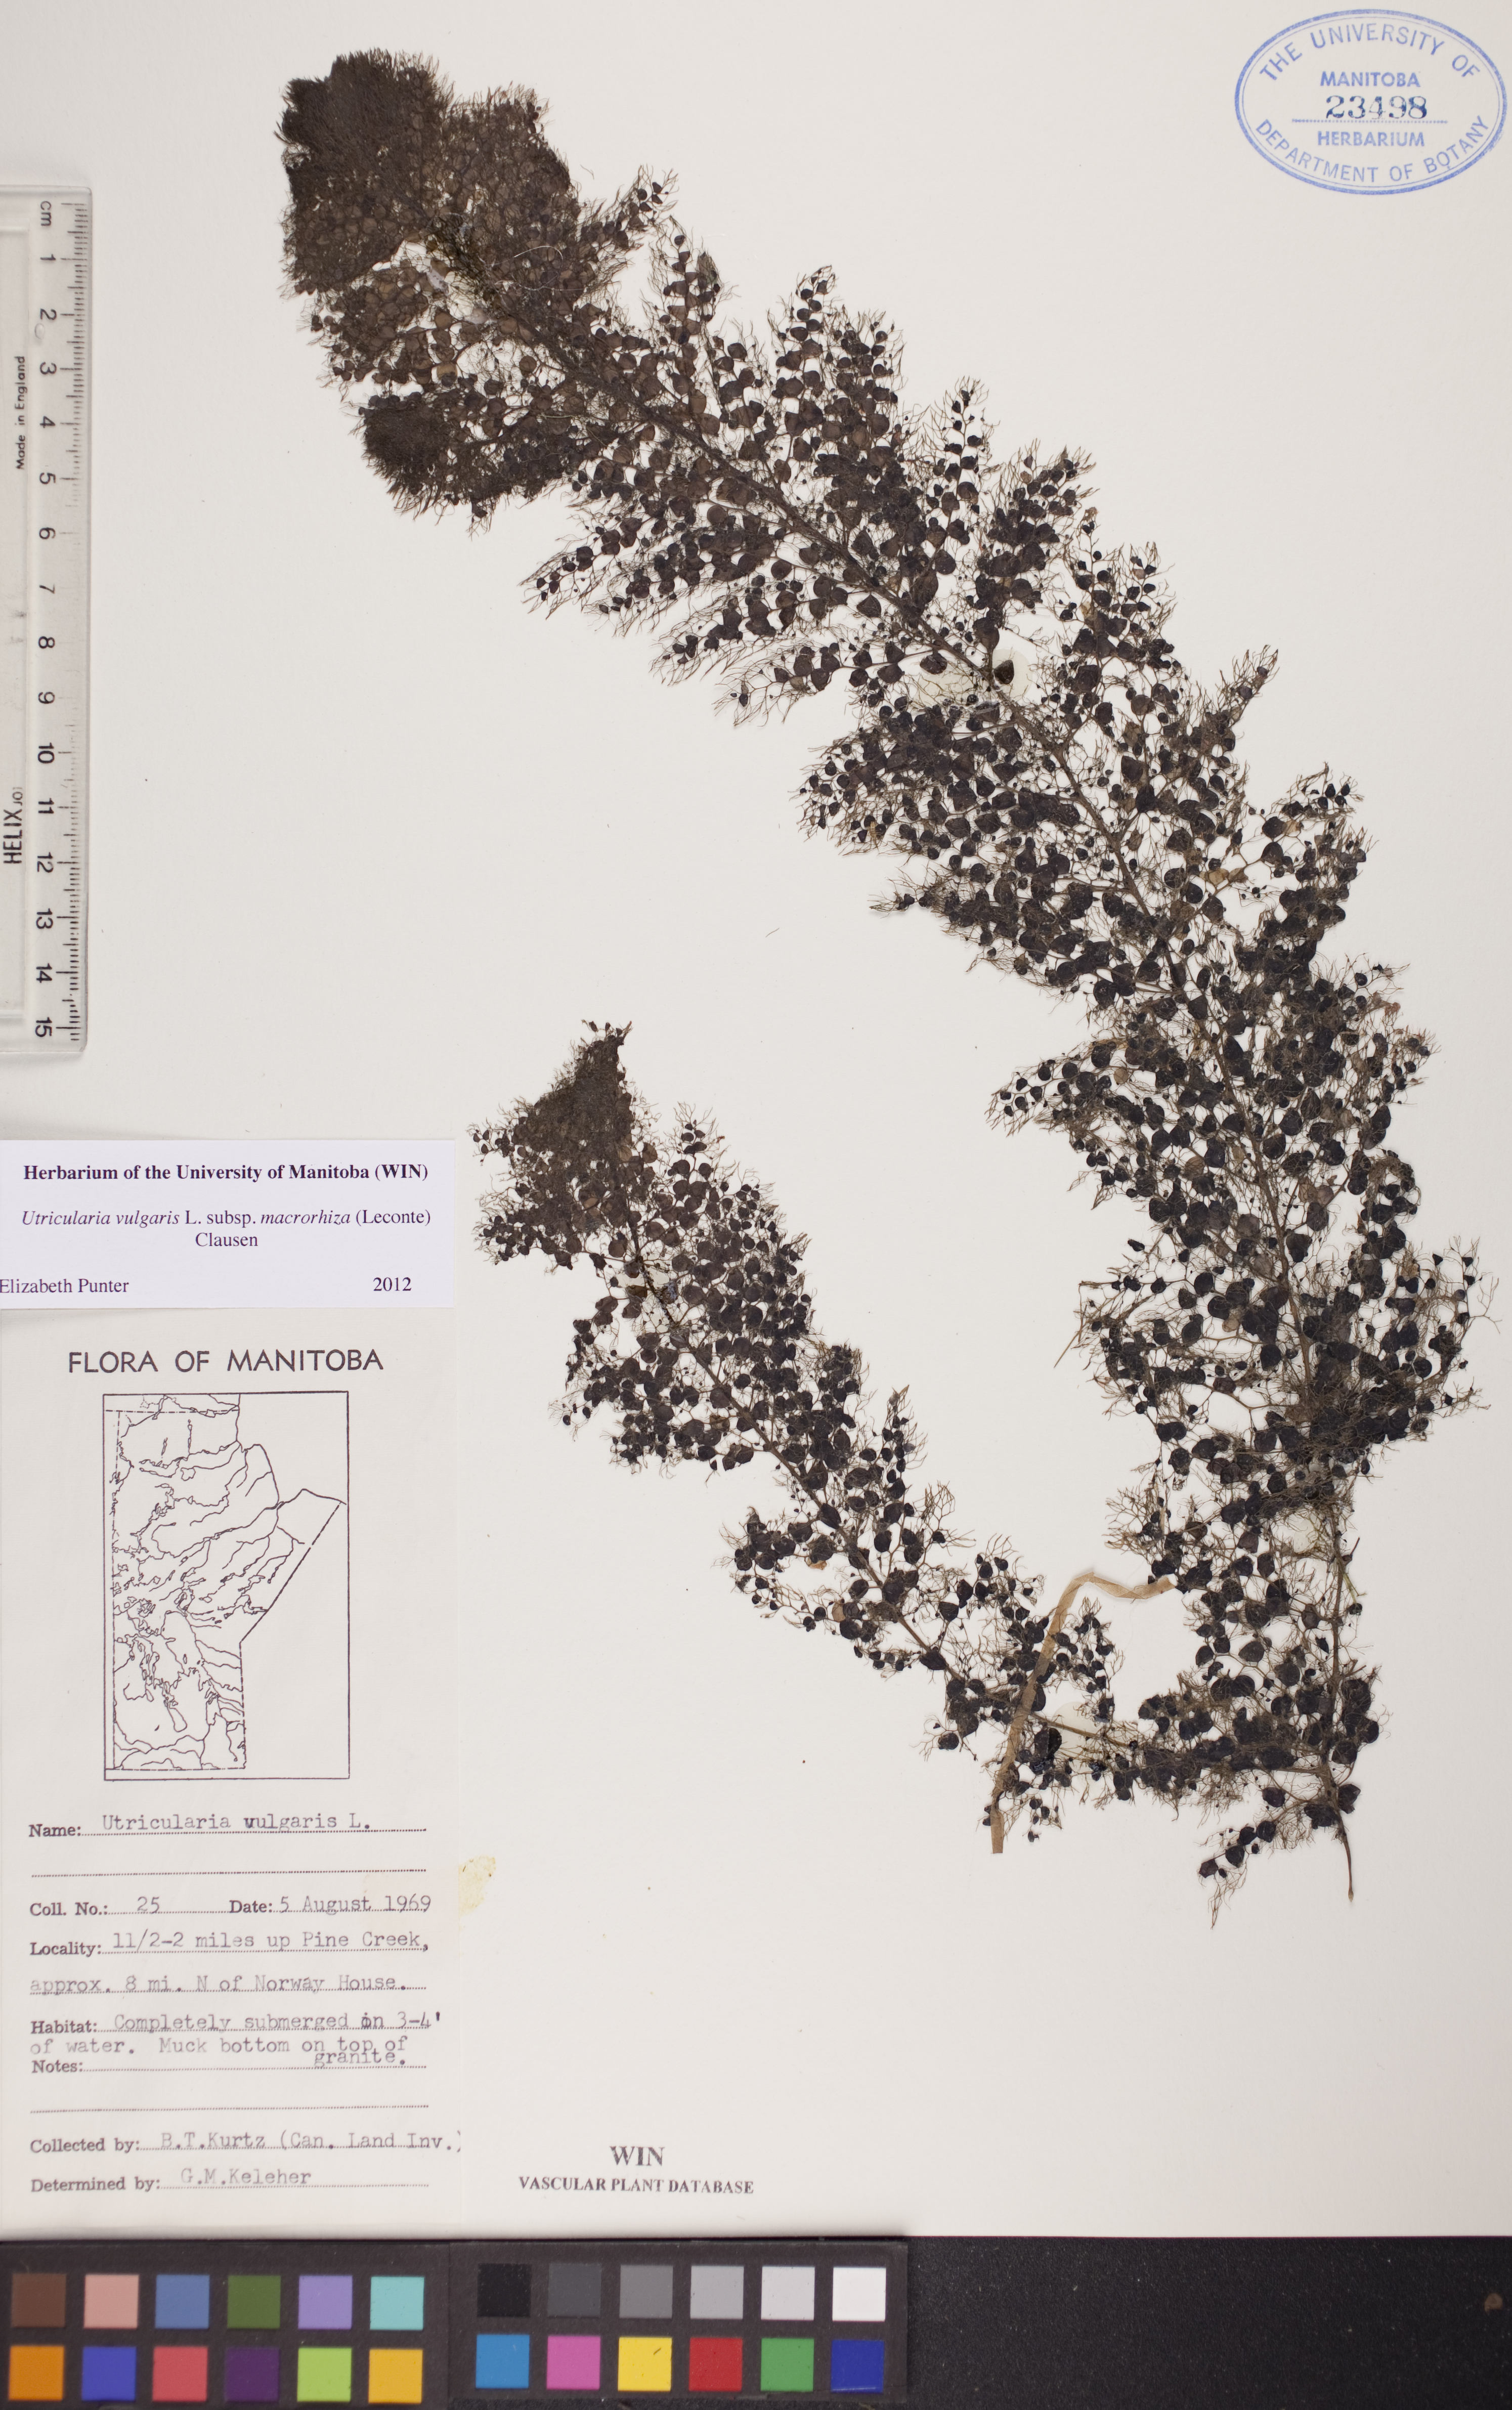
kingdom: Plantae
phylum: Tracheophyta
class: Magnoliopsida
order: Lamiales
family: Lentibulariaceae
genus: Utricularia
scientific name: Utricularia macrorhiza
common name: Common bladderwort
